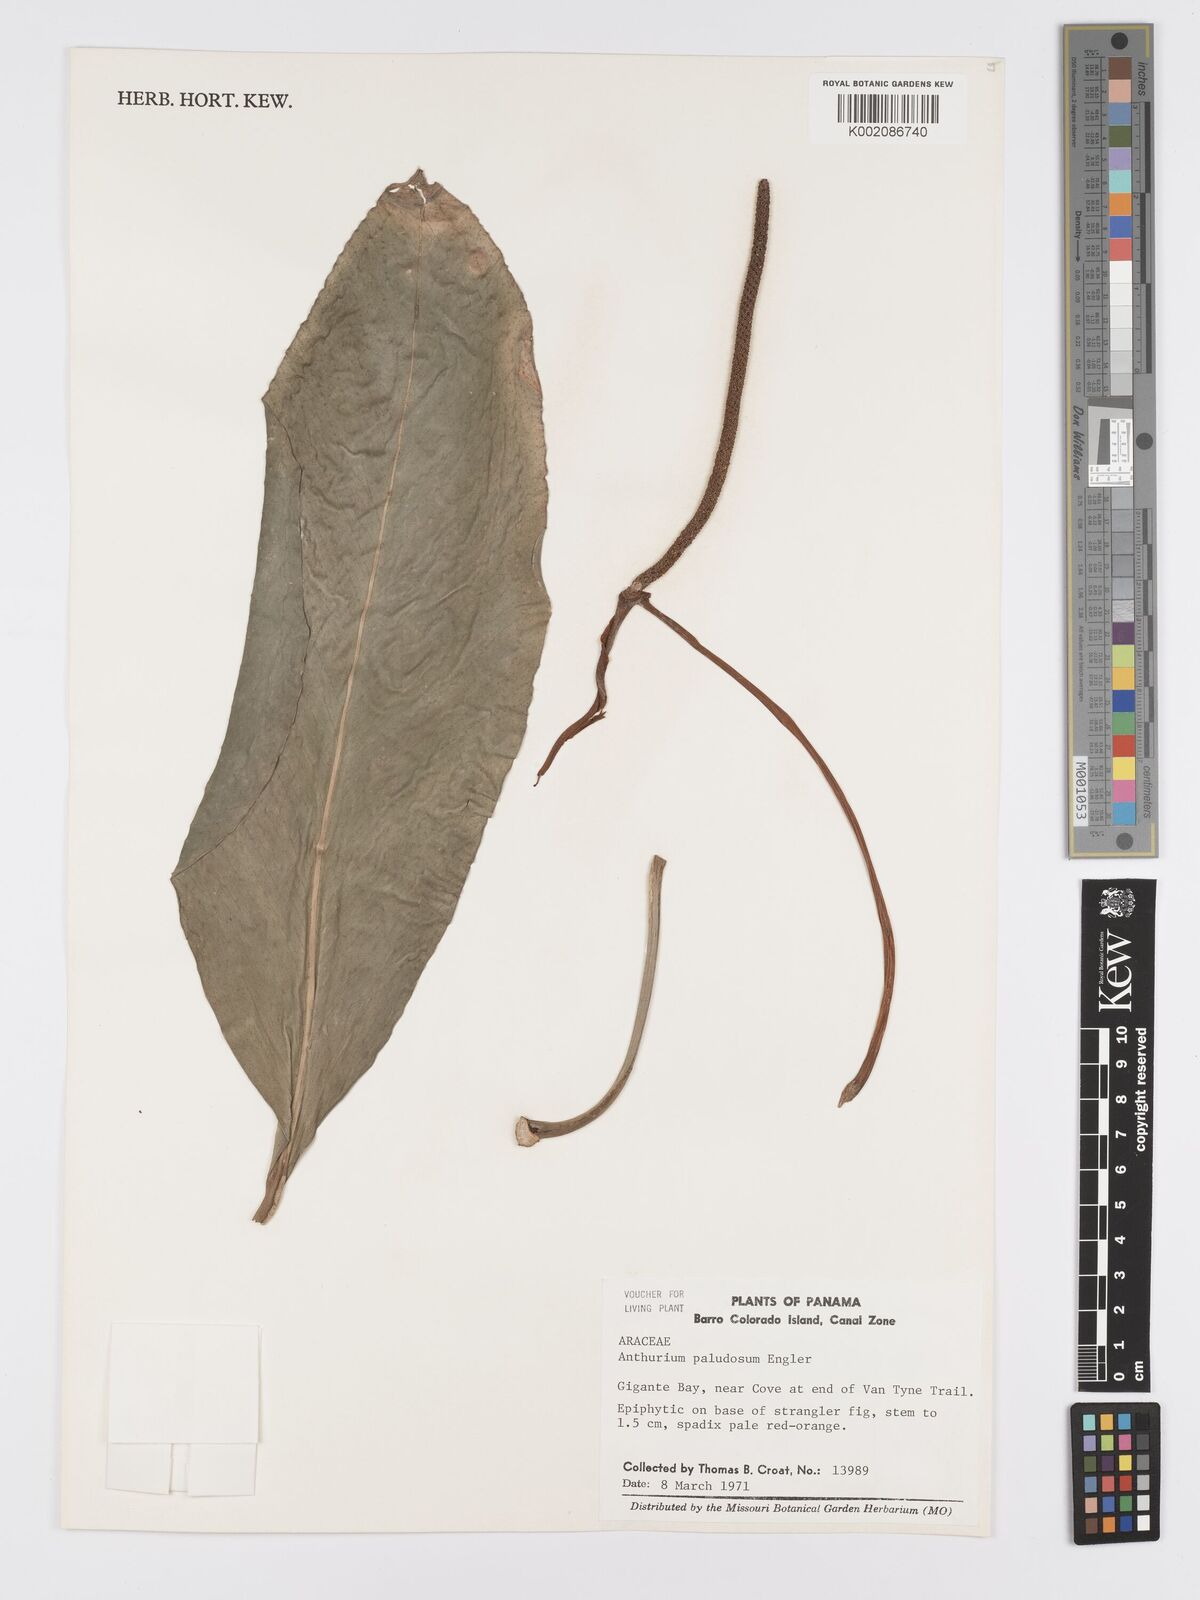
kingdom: Plantae
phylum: Tracheophyta
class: Liliopsida
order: Alismatales
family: Araceae
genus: Anthurium
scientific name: Anthurium paludosum
